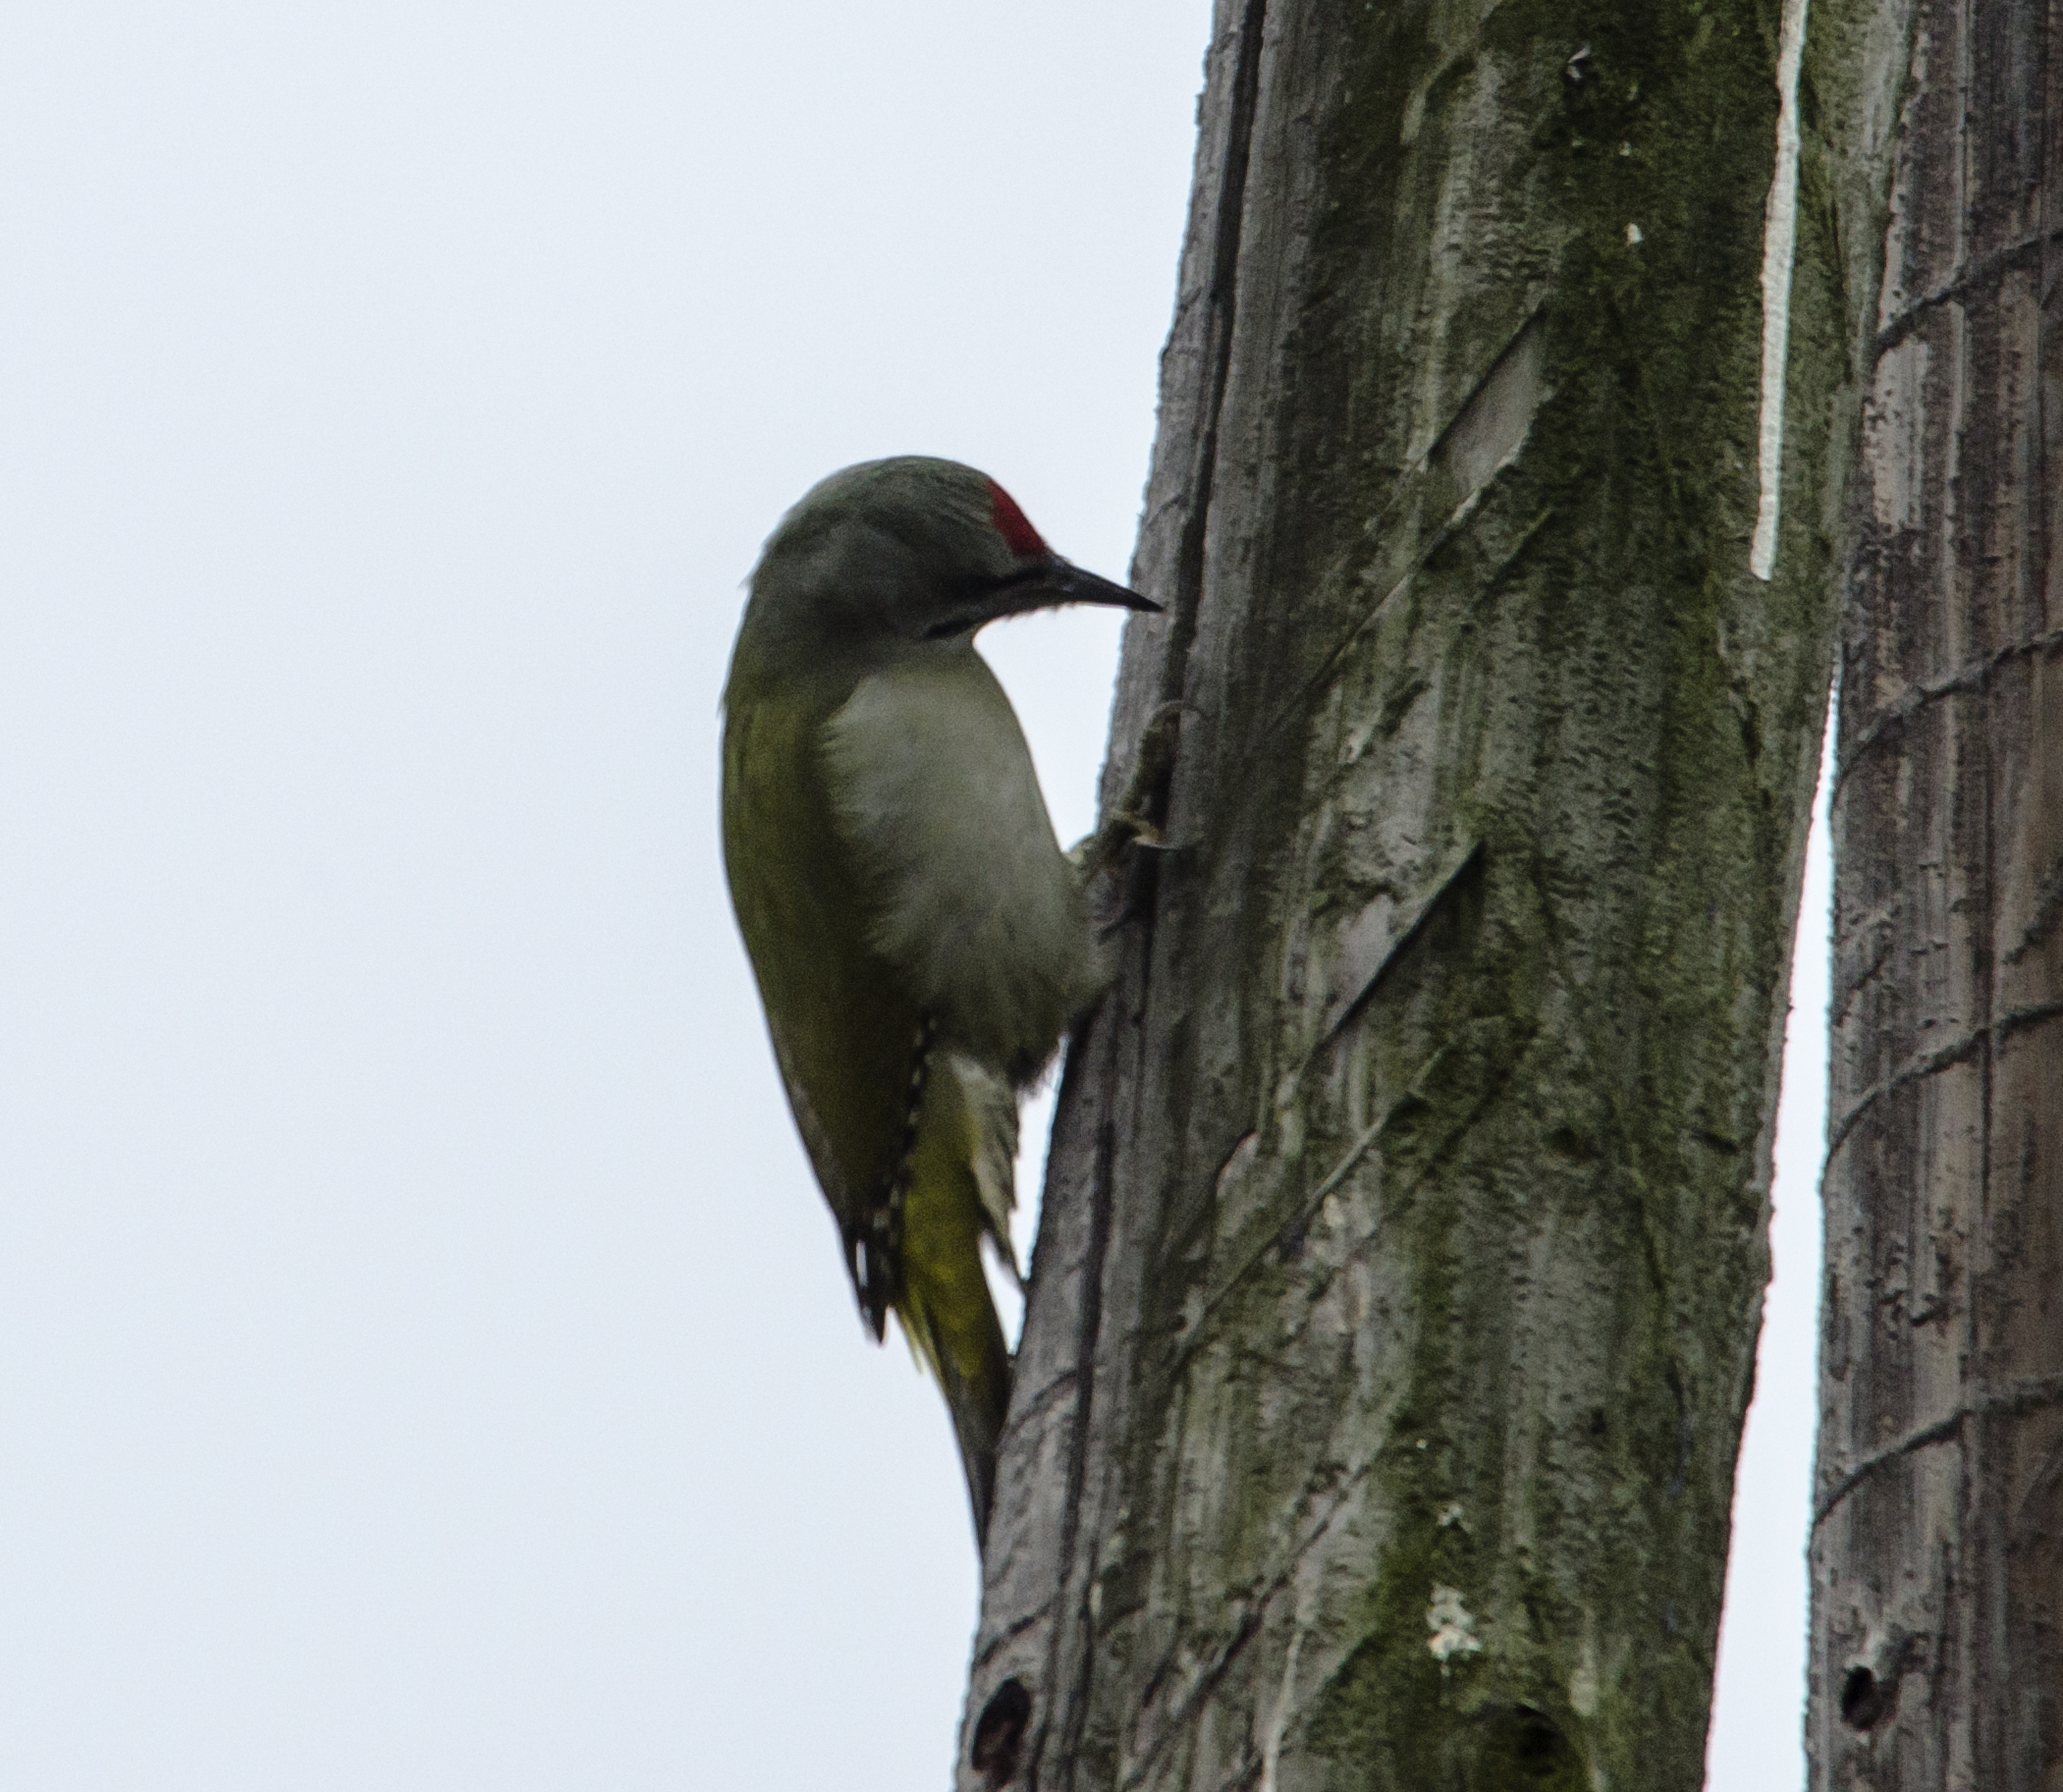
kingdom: Animalia
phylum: Chordata
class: Aves
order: Piciformes
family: Picidae
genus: Picus
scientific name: Picus canus
